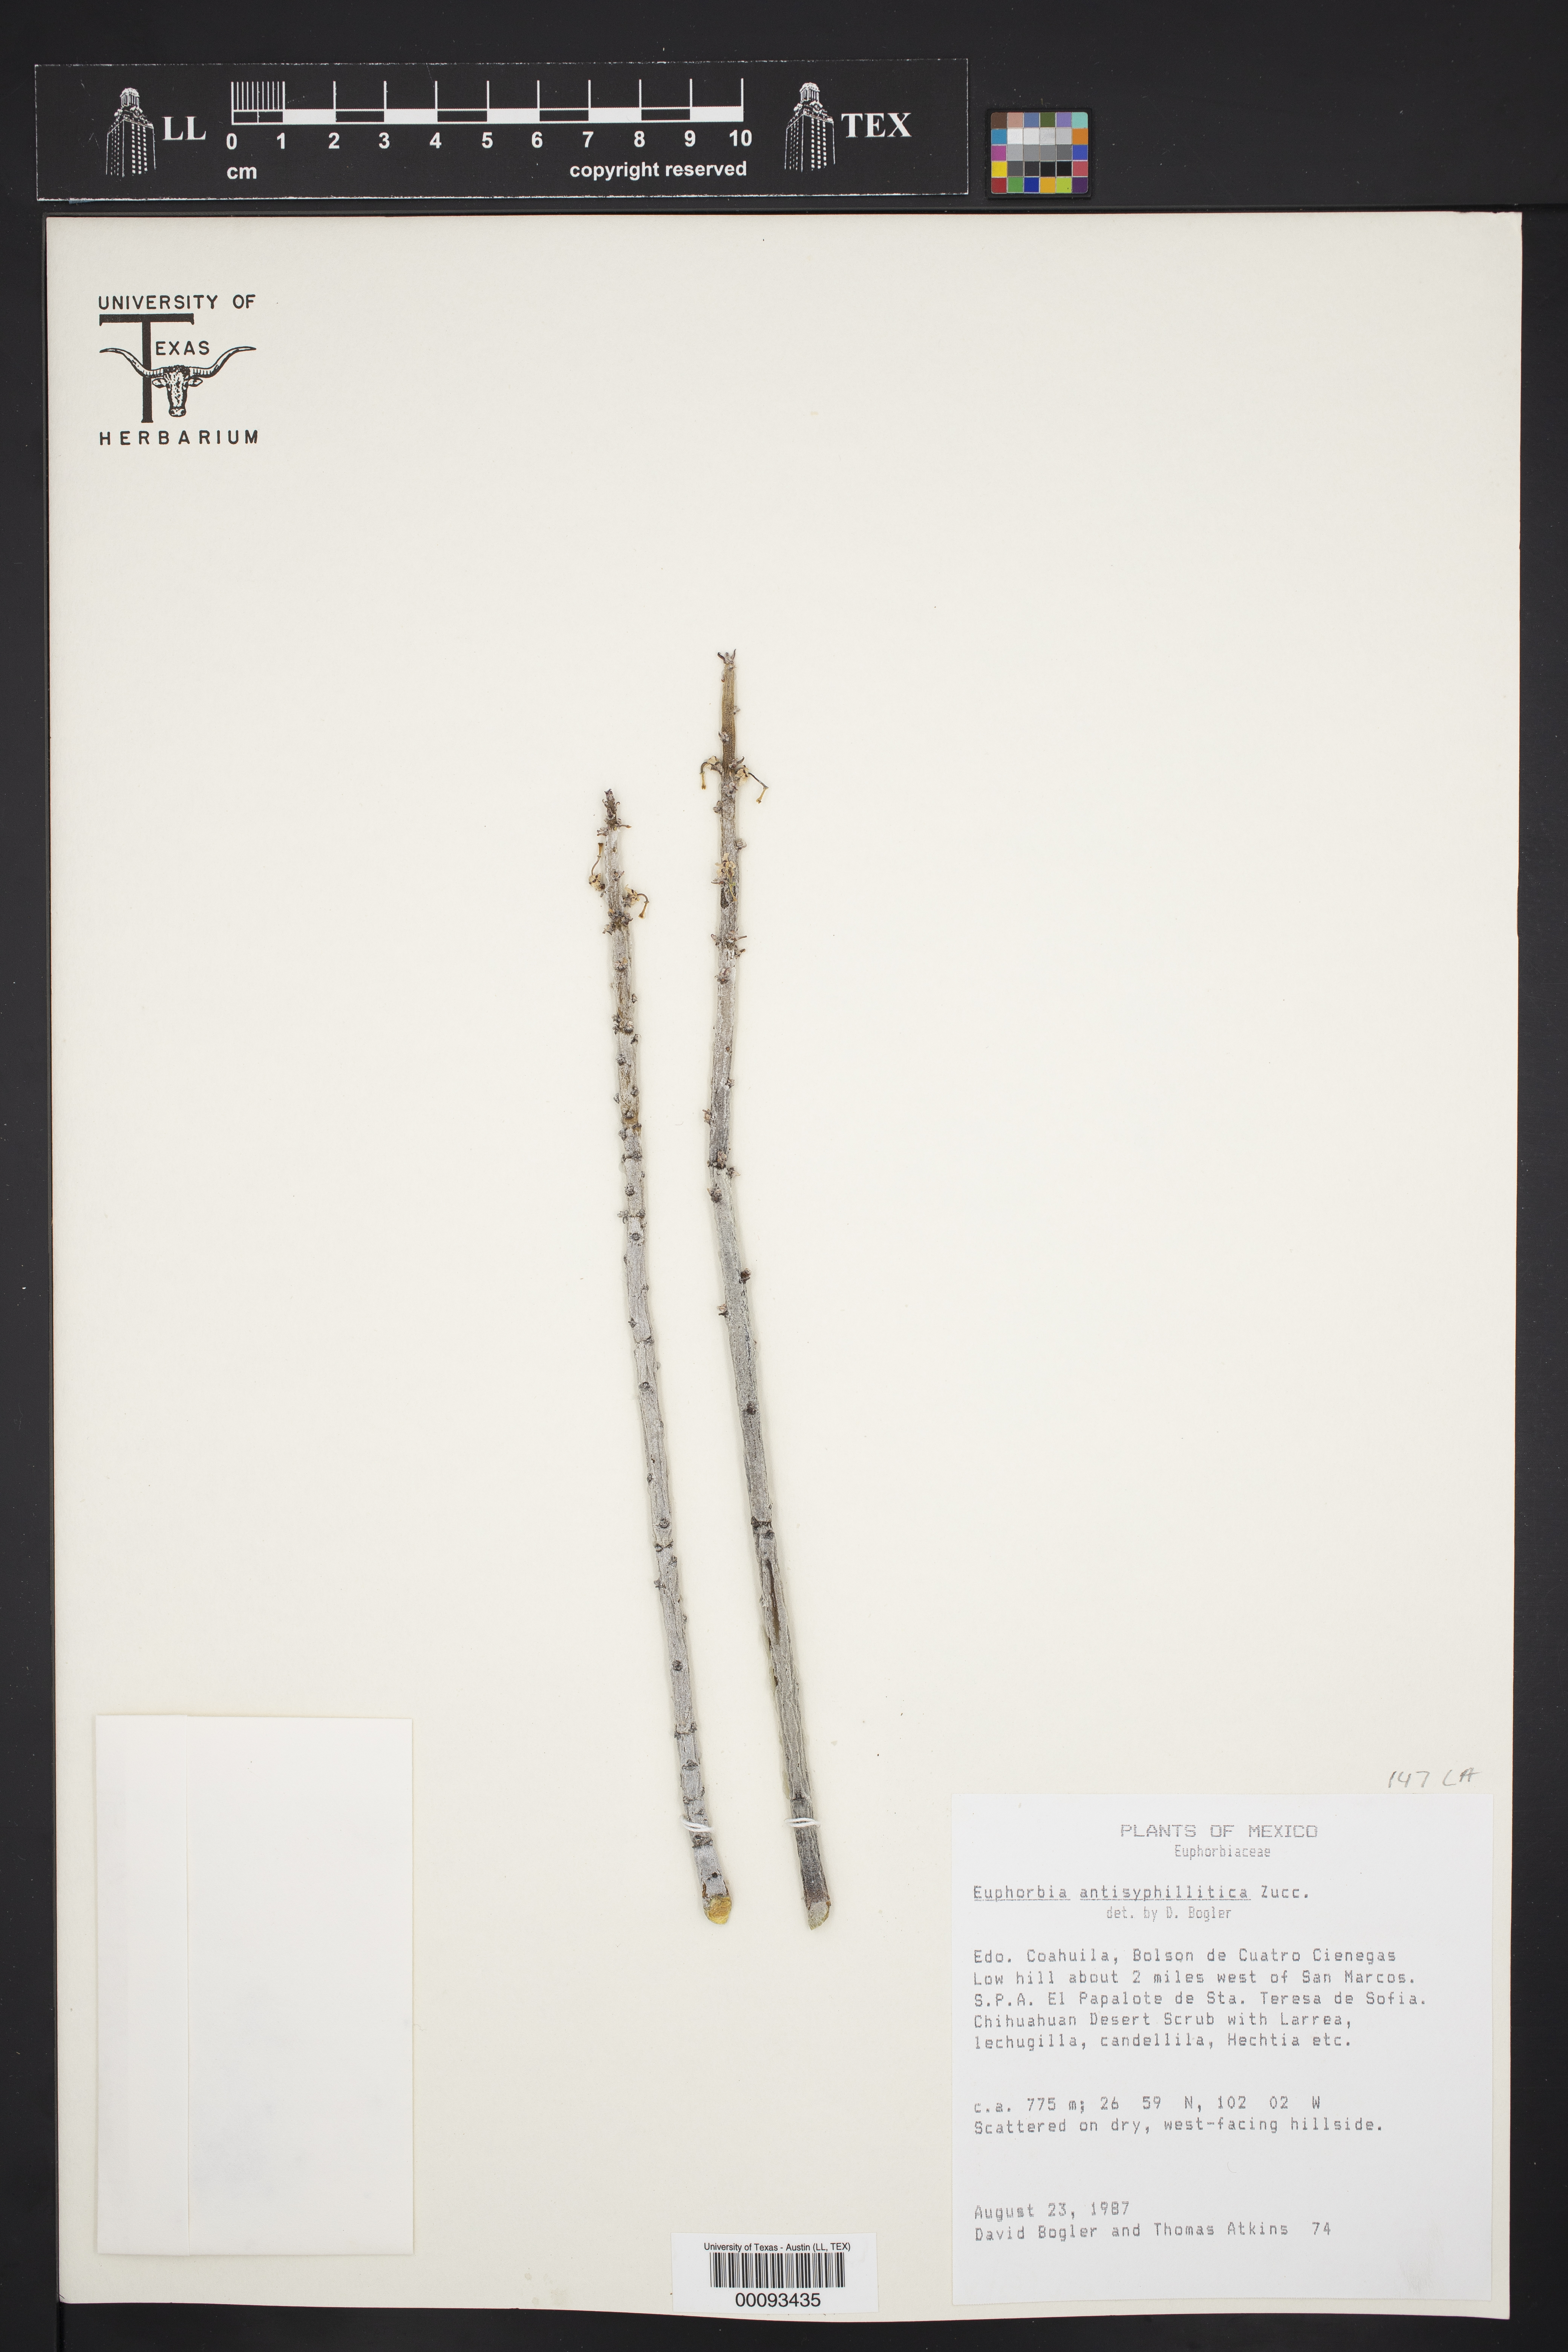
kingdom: Plantae
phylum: Tracheophyta
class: Magnoliopsida
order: Malpighiales
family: Euphorbiaceae
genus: Euphorbia
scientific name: Euphorbia antisyphilitica
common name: Candelilla
